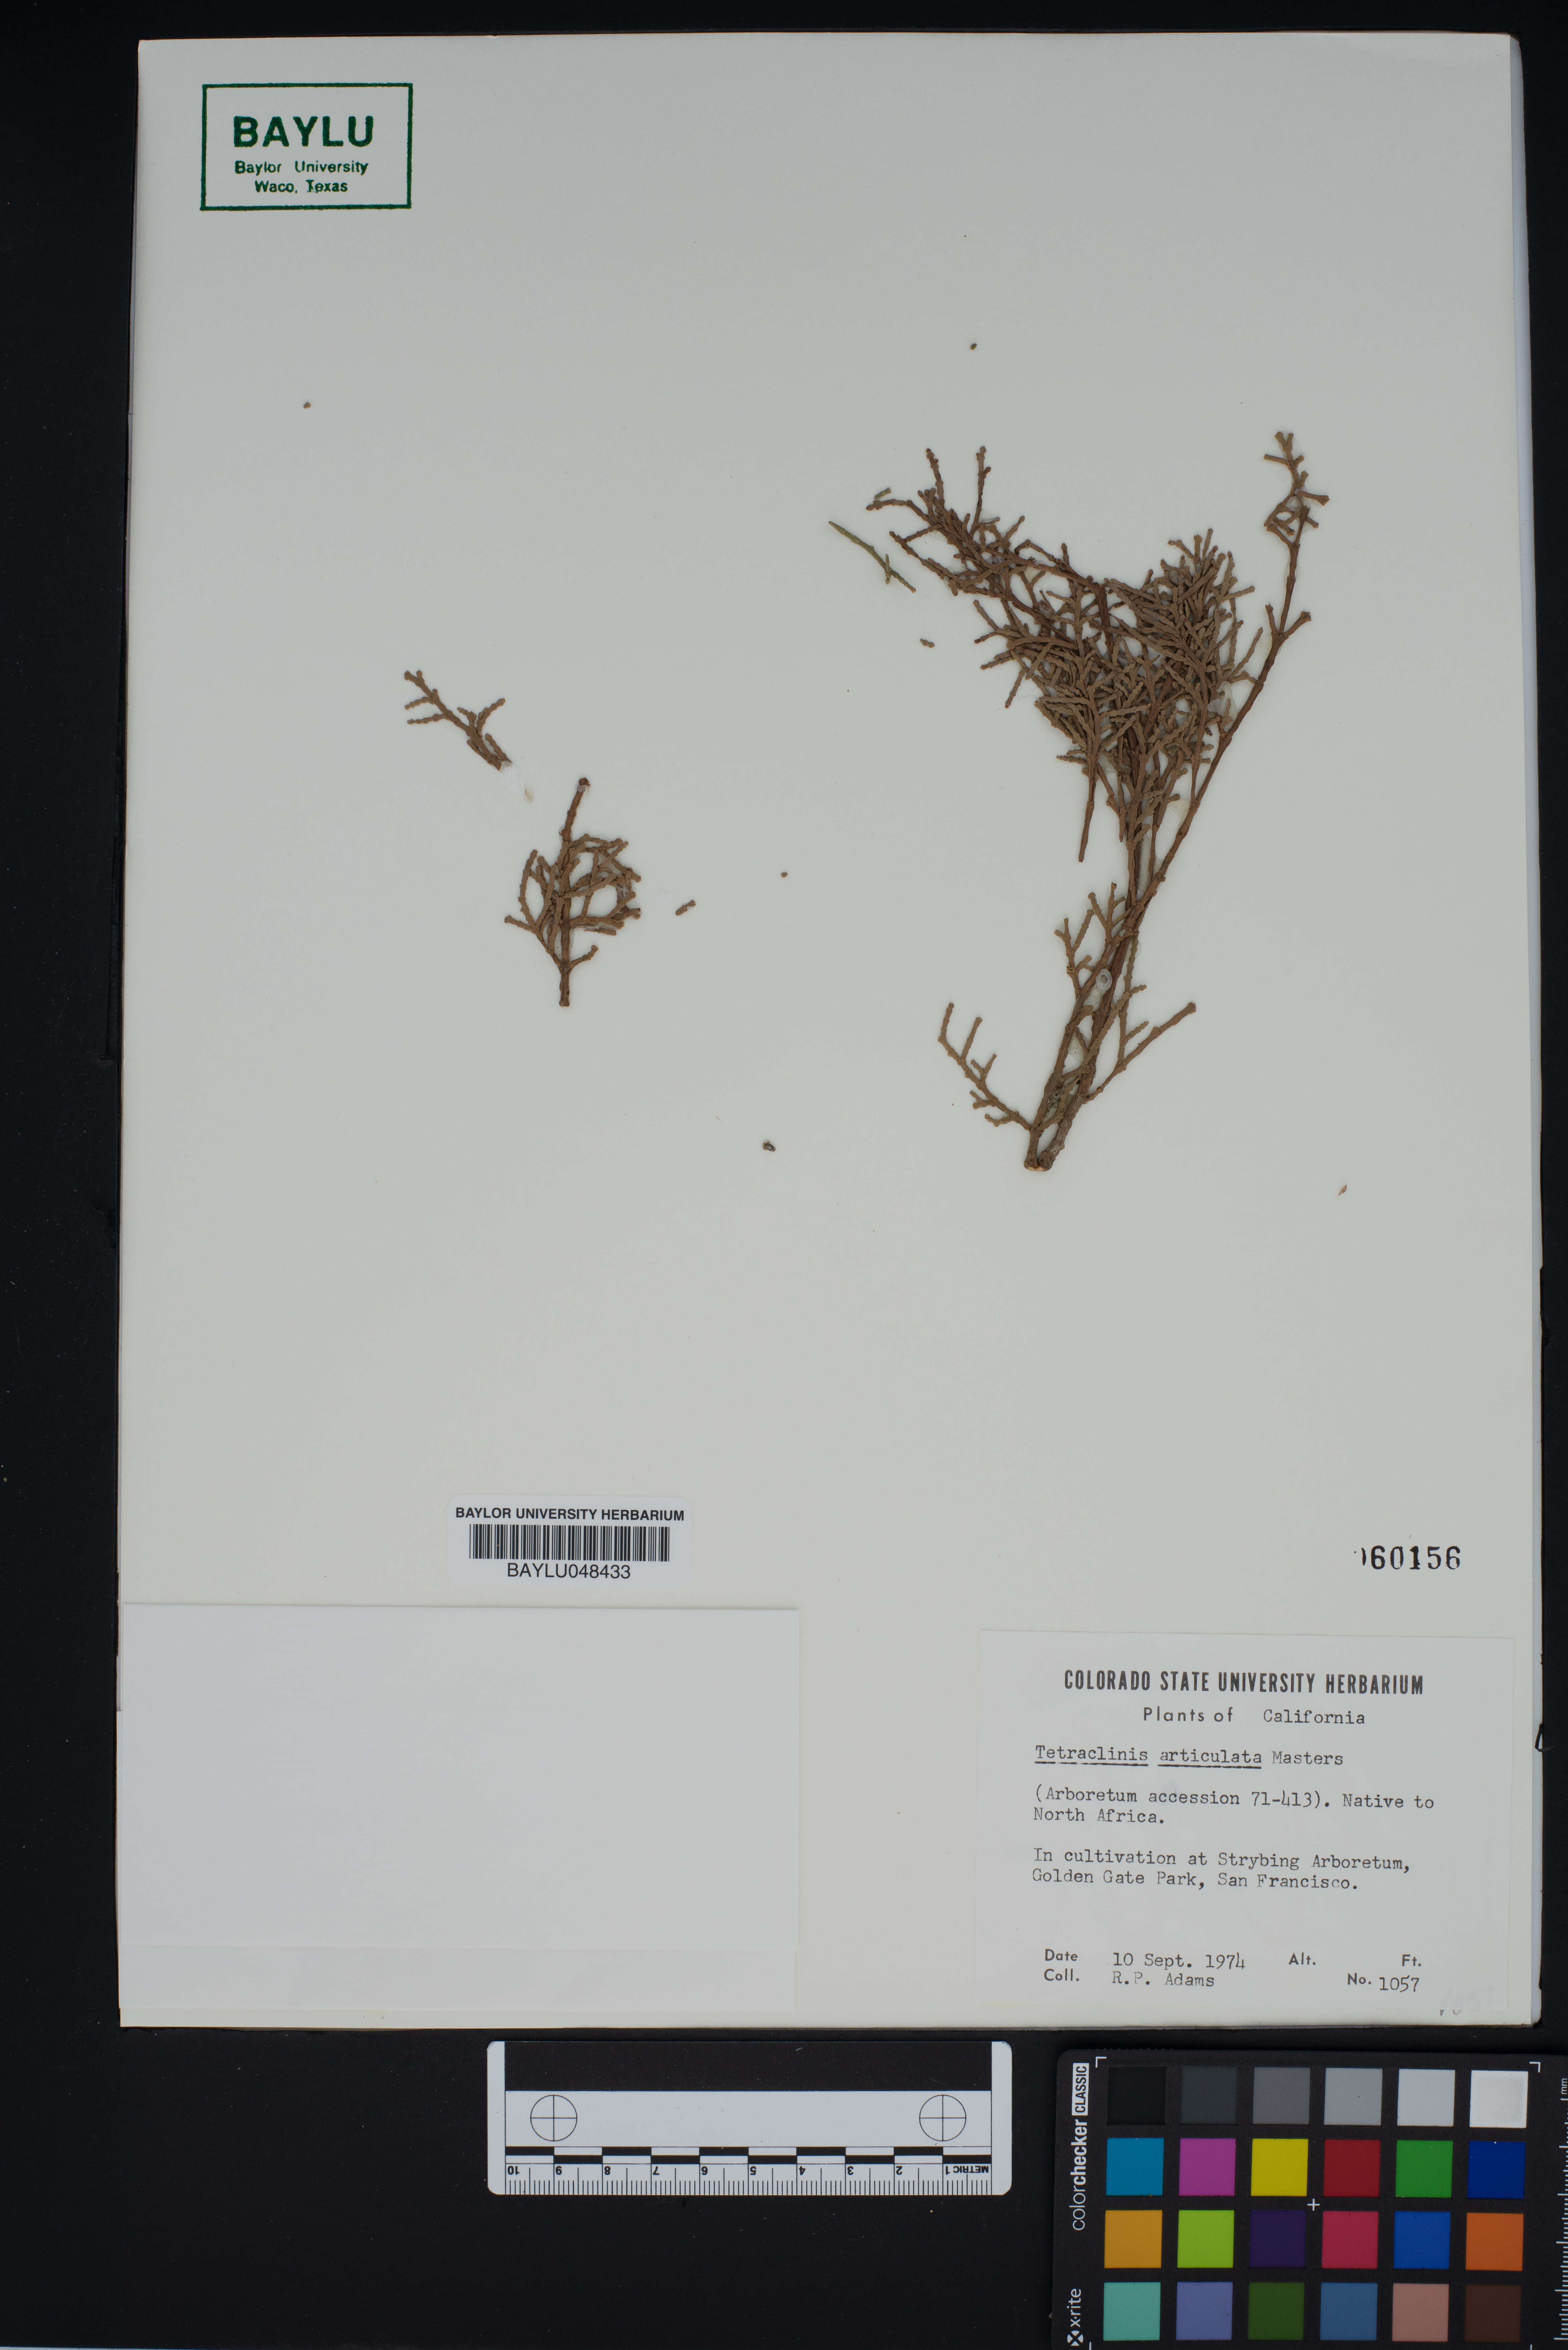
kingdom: Plantae
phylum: Tracheophyta
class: Pinopsida
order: Pinales
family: Cupressaceae
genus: Tetraclinis
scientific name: Tetraclinis articulata
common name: Sandarac
